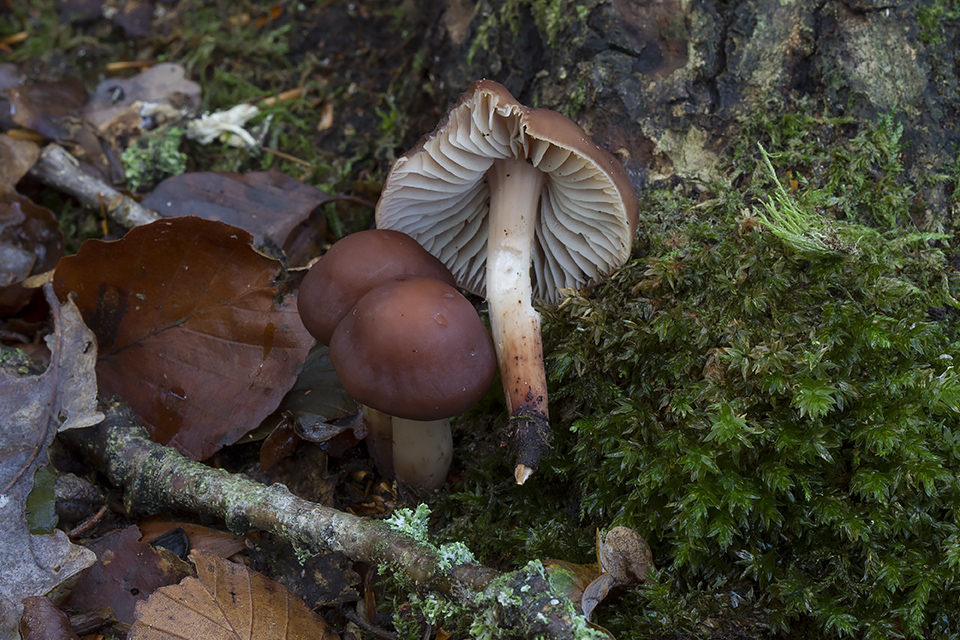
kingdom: Fungi
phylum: Basidiomycota
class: Agaricomycetes
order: Agaricales
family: Omphalotaceae
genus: Gymnopus
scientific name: Gymnopus fusipes
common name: tenstokket fladhat
